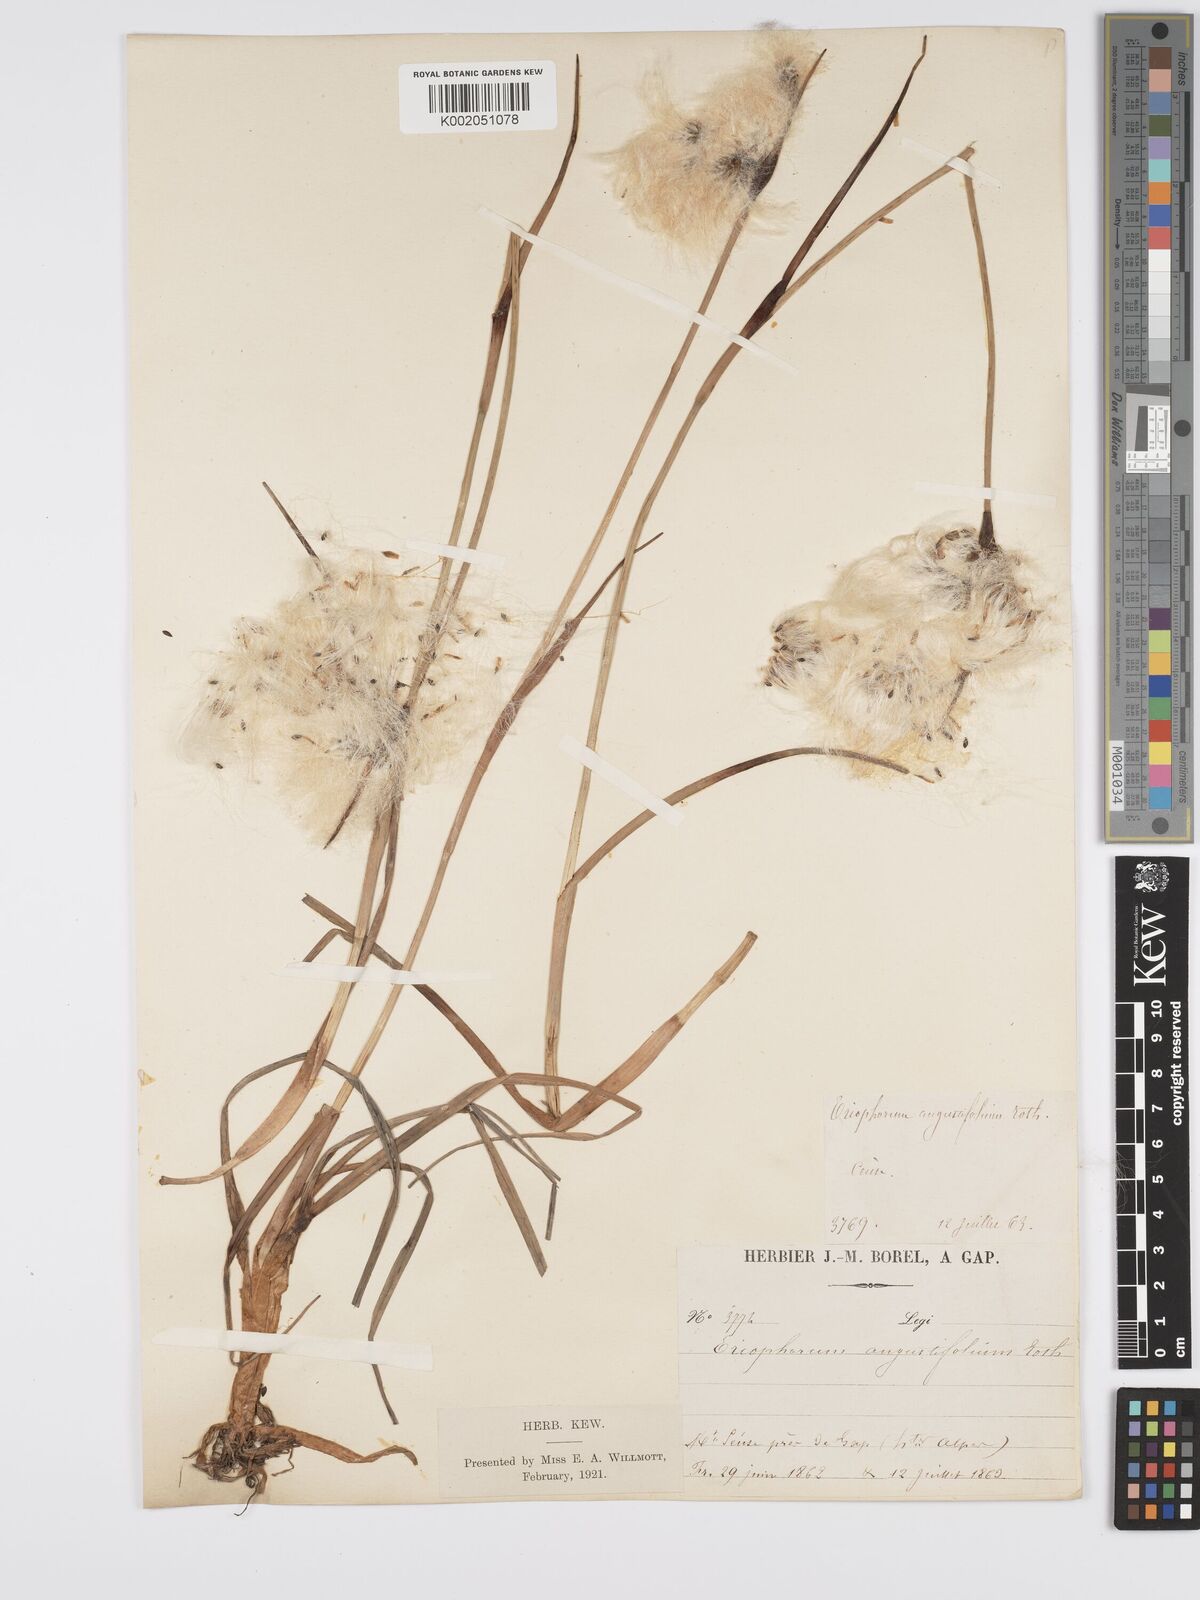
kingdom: Plantae
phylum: Tracheophyta
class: Liliopsida
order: Poales
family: Cyperaceae
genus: Eriophorum
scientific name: Eriophorum angustifolium
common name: Common cottongrass
